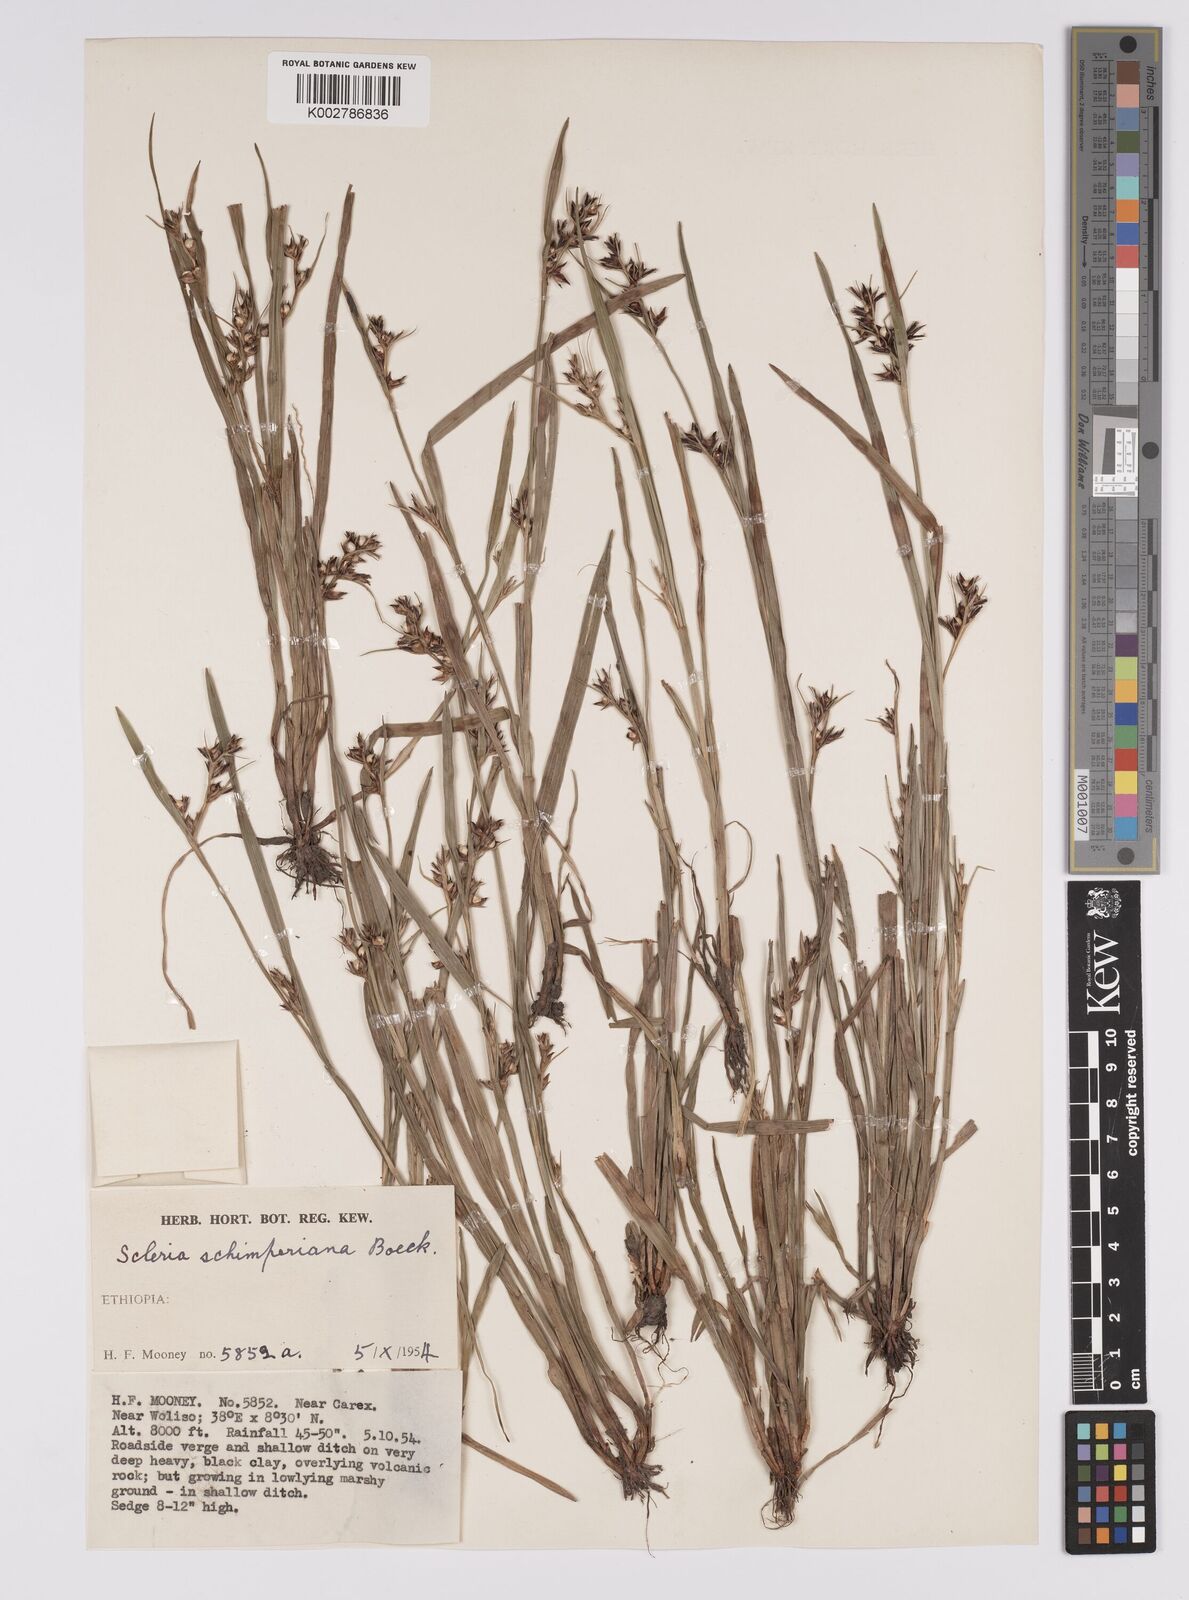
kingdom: Plantae
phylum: Tracheophyta
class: Liliopsida
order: Poales
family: Cyperaceae
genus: Scleria
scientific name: Scleria schimperiana
